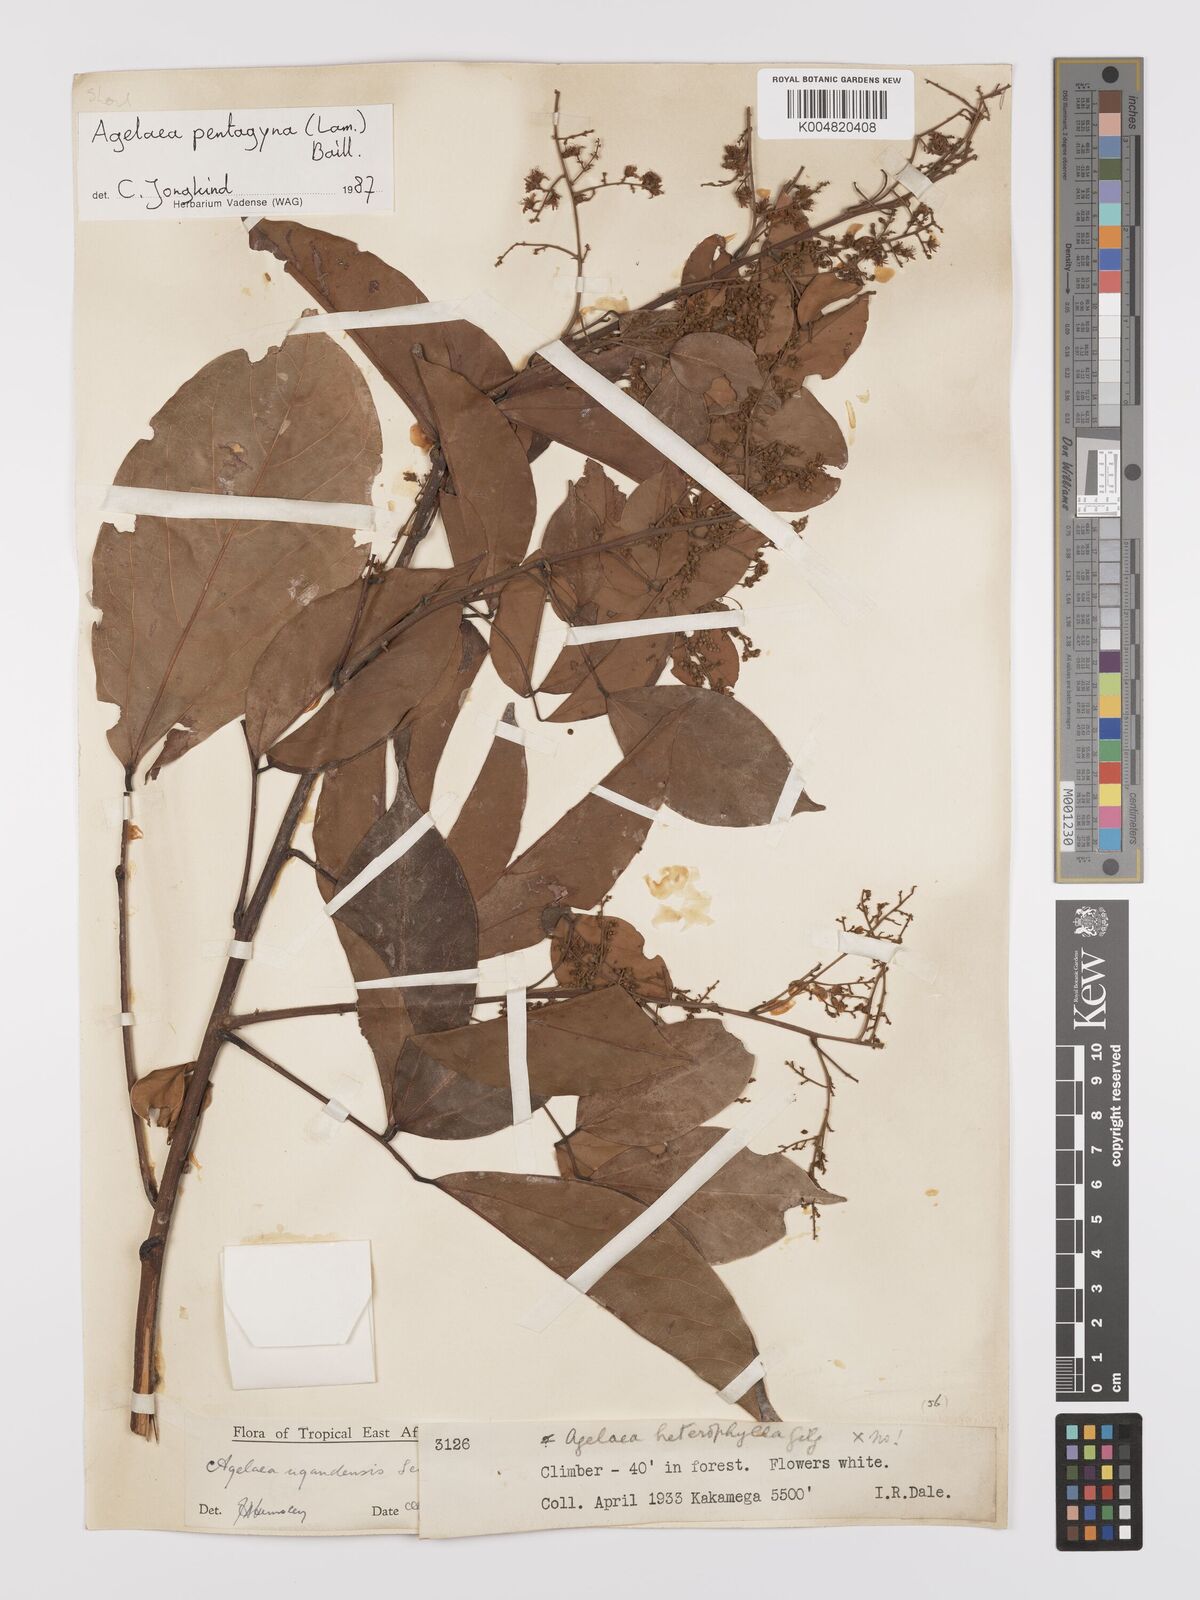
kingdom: Plantae
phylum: Tracheophyta
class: Magnoliopsida
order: Oxalidales
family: Connaraceae
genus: Agelaea
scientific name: Agelaea pentagyna
